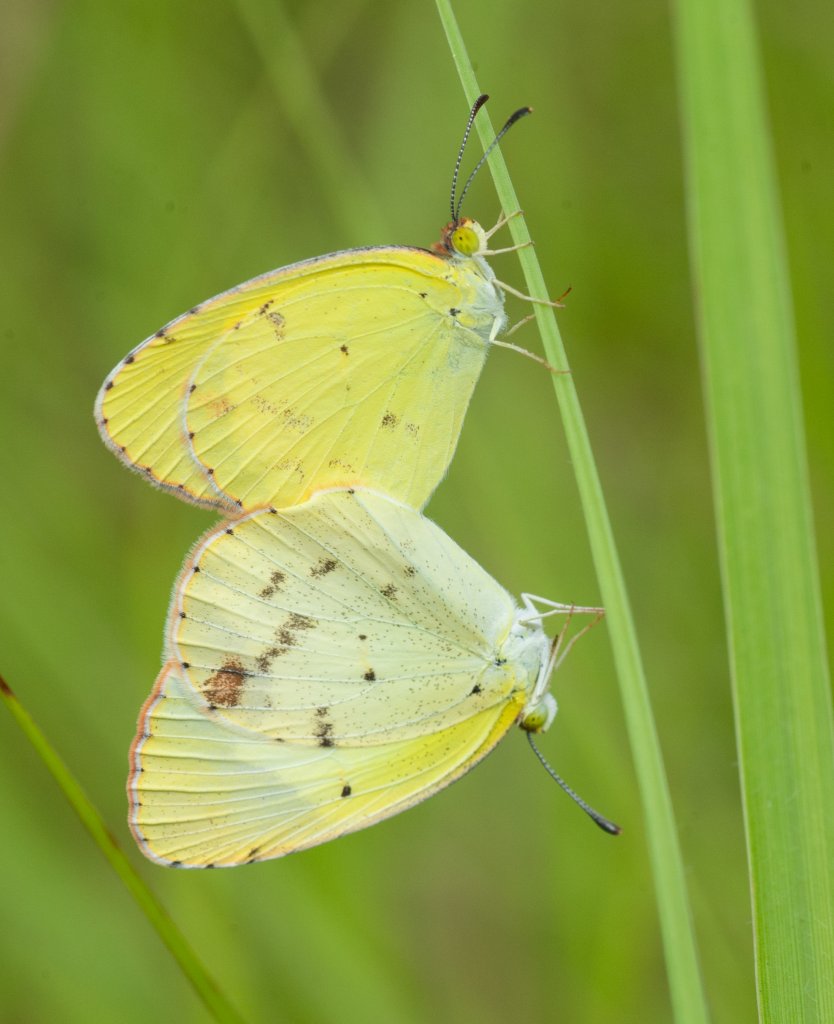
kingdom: Animalia
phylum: Arthropoda
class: Insecta
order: Lepidoptera
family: Pieridae
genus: Pyrisitia
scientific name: Pyrisitia lisa
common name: Little Yellow
